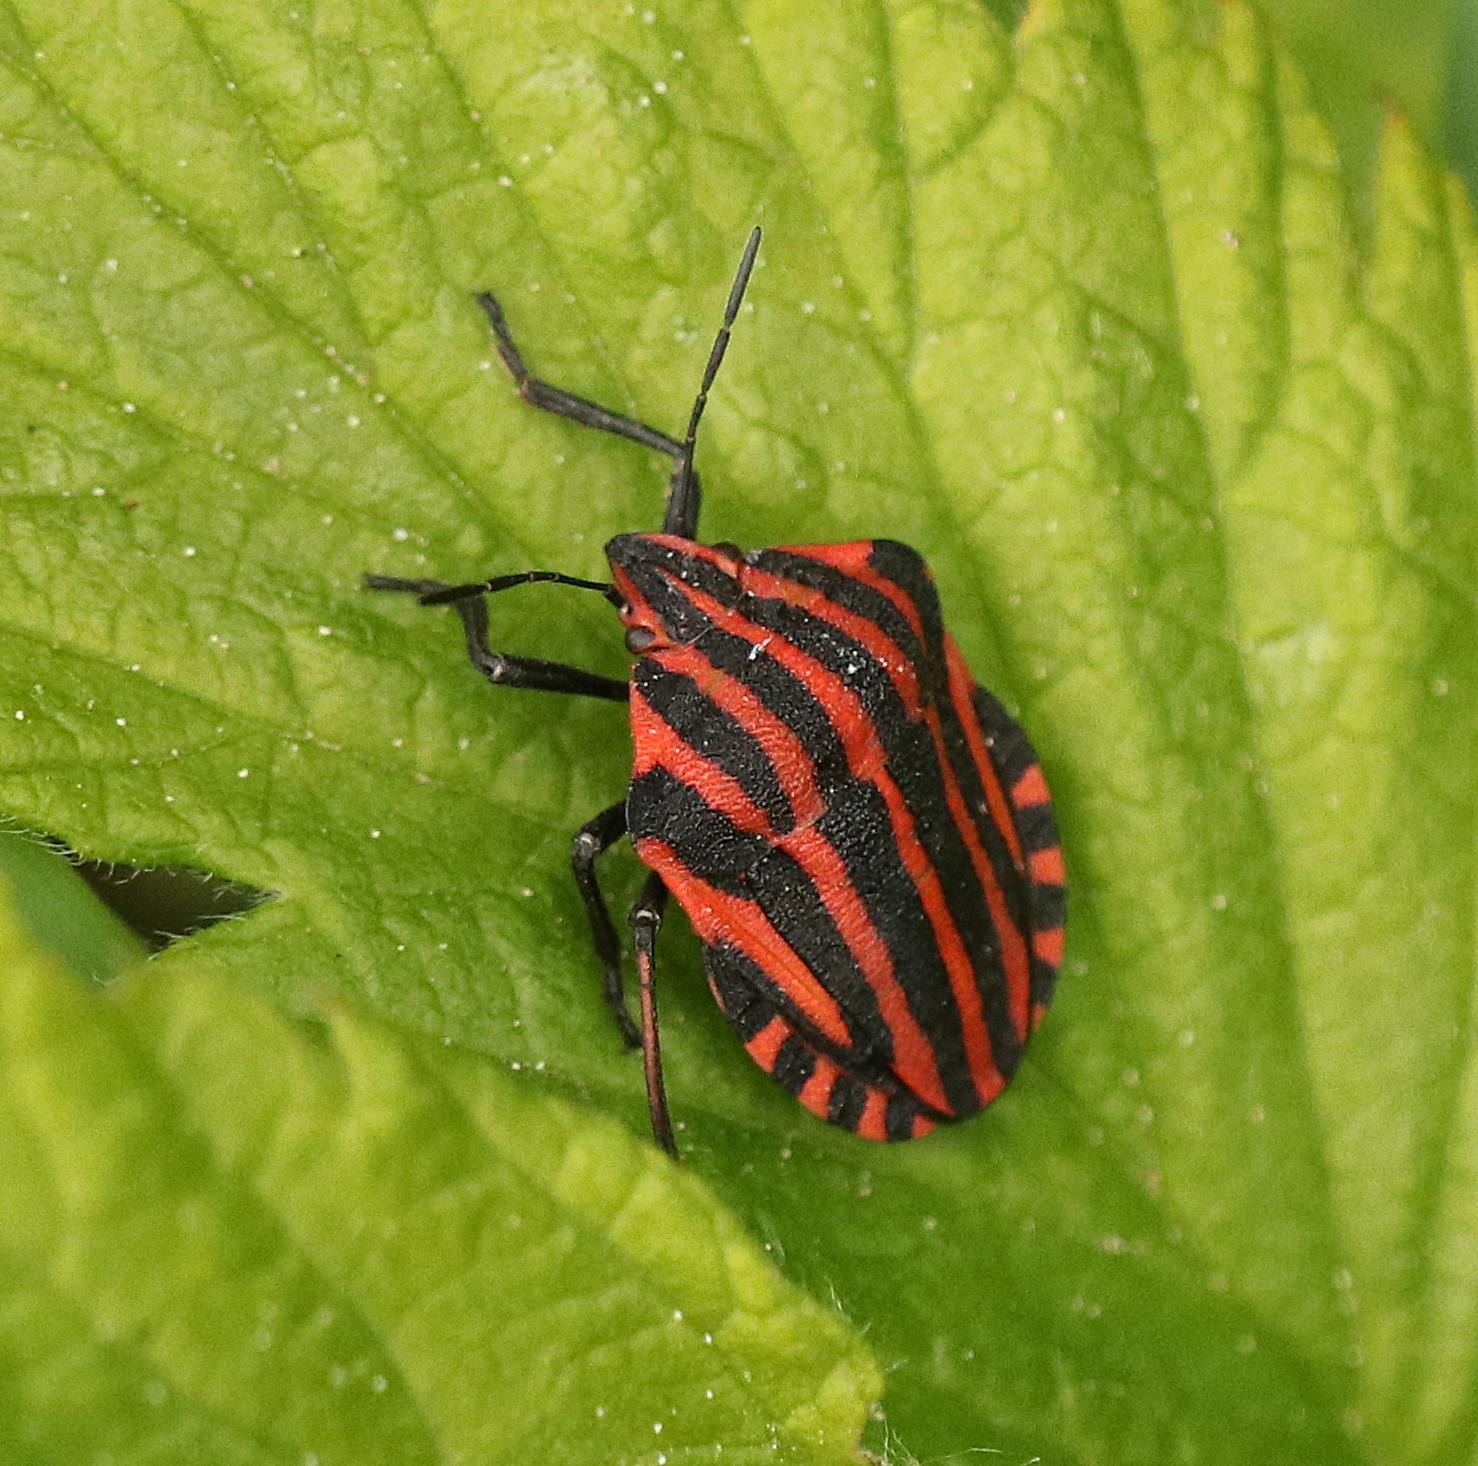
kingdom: Animalia
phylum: Arthropoda
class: Insecta
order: Hemiptera
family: Pentatomidae
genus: Graphosoma
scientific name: Graphosoma italicum
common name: Stribetæge
